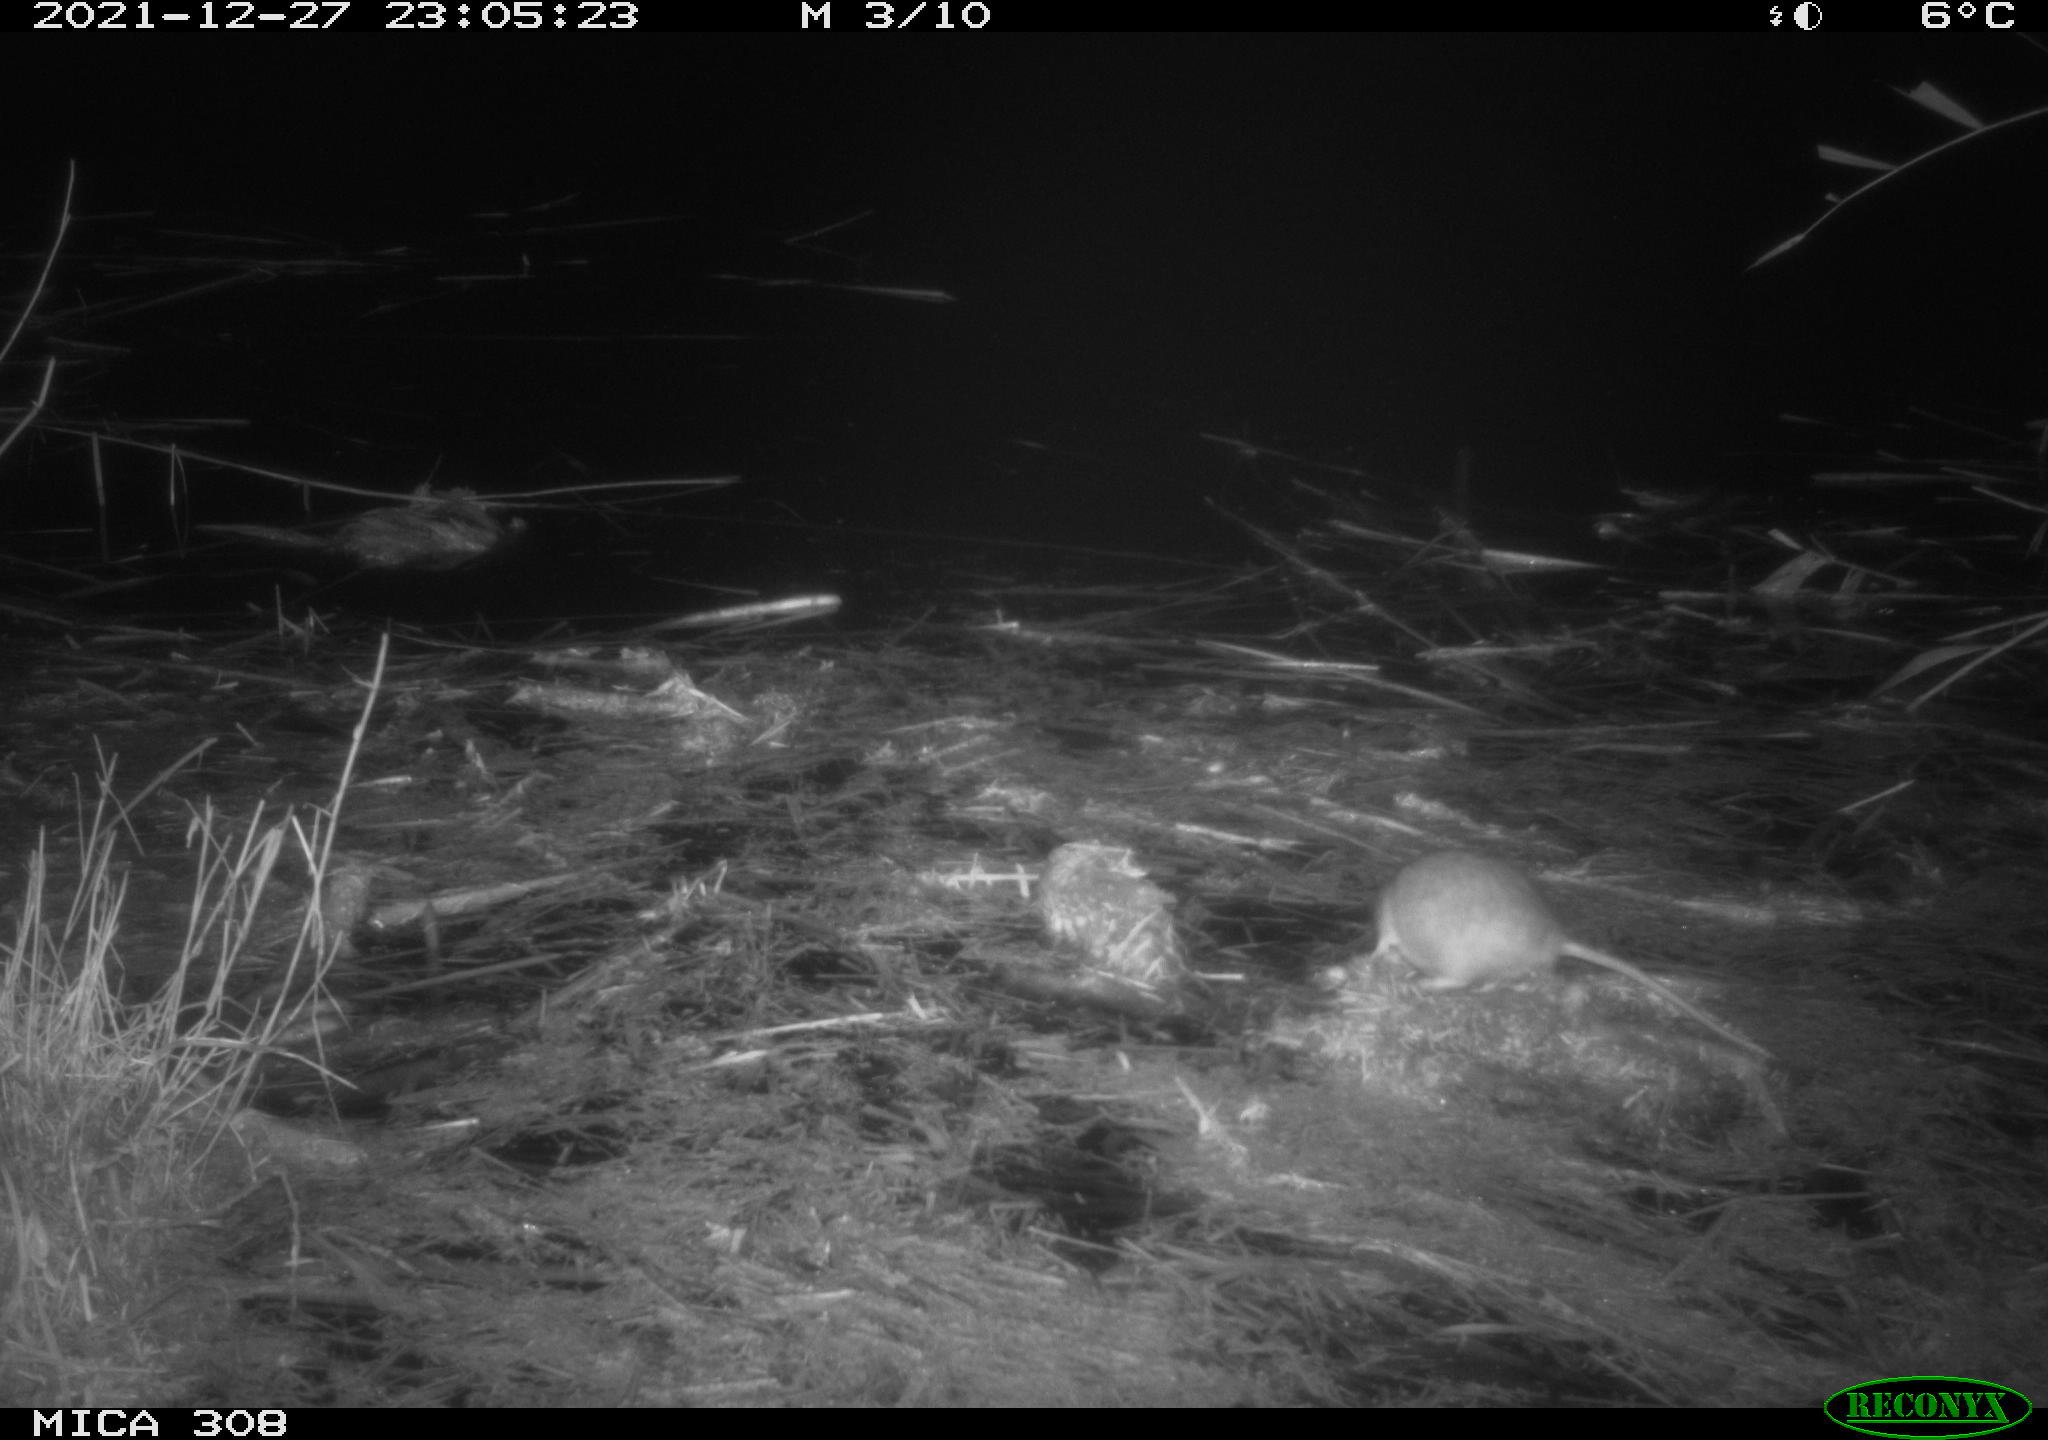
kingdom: Animalia
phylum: Chordata
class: Mammalia
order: Rodentia
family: Muridae
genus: Rattus
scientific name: Rattus norvegicus
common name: Brown rat
